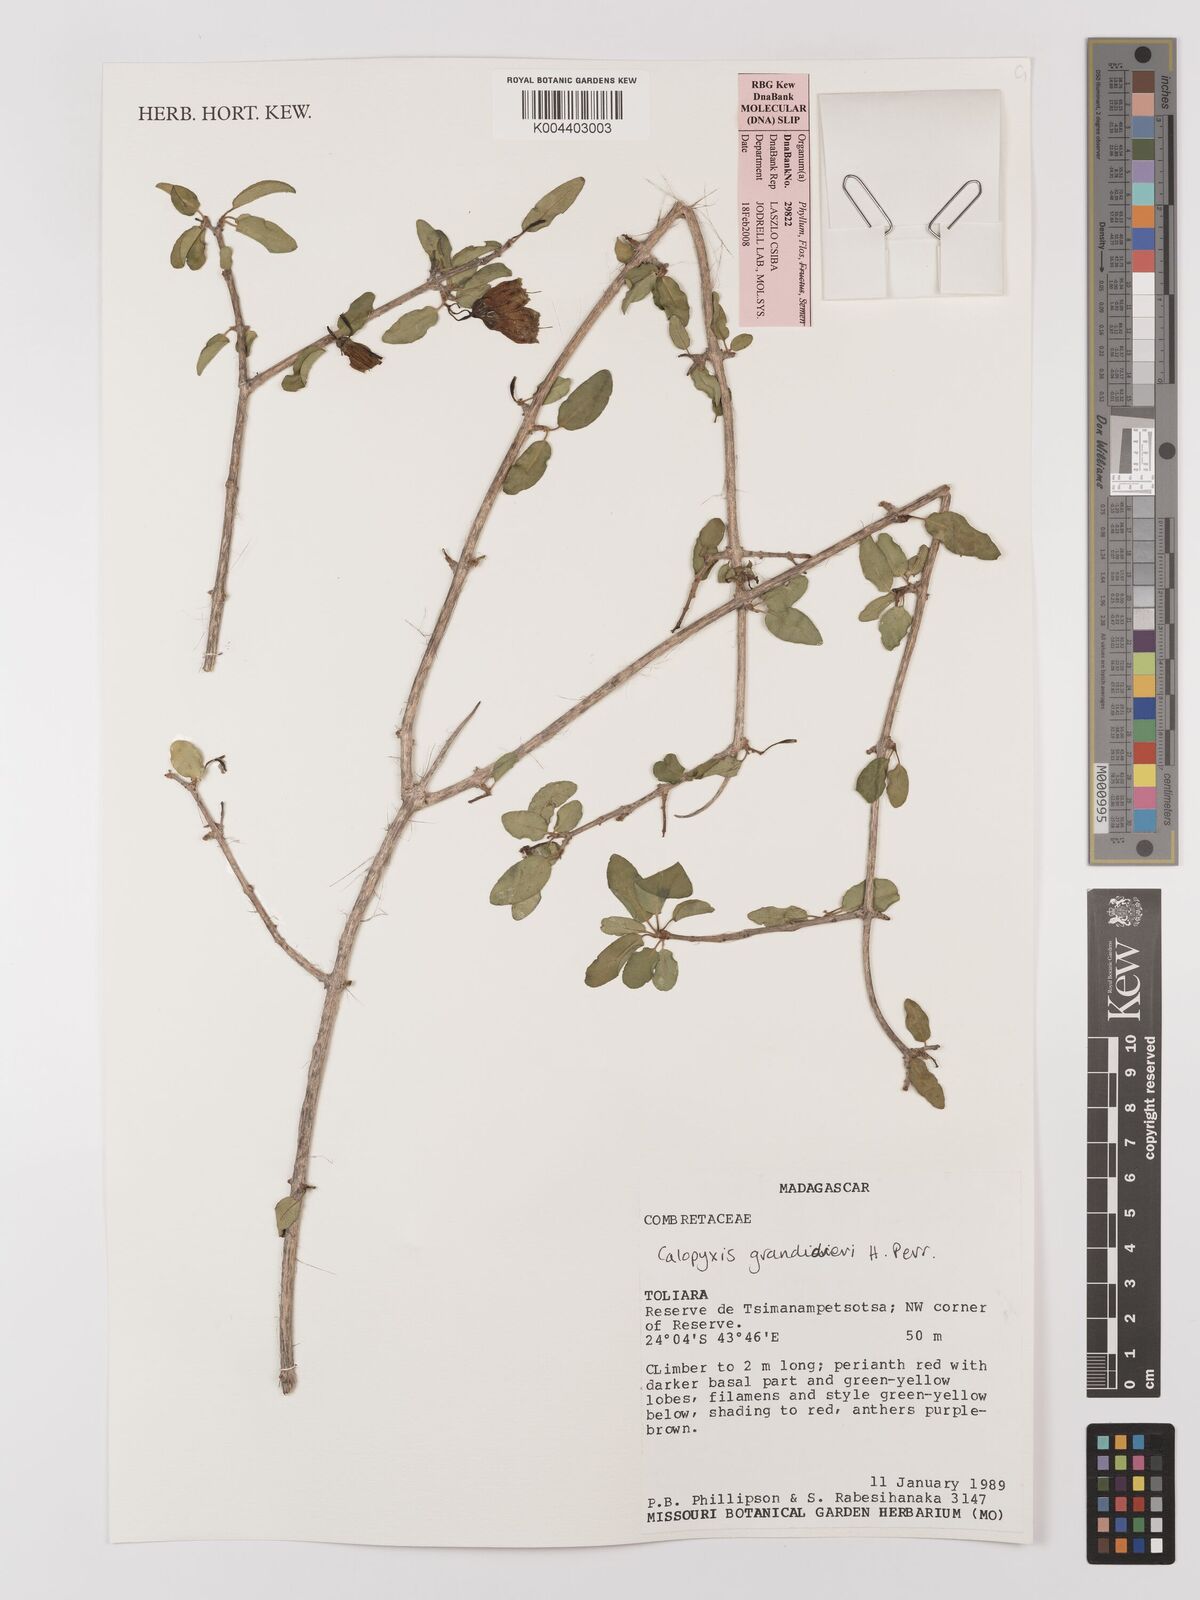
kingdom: Plantae
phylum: Tracheophyta
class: Magnoliopsida
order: Myrtales
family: Combretaceae
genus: Combretum
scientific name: Combretum grandidieri
